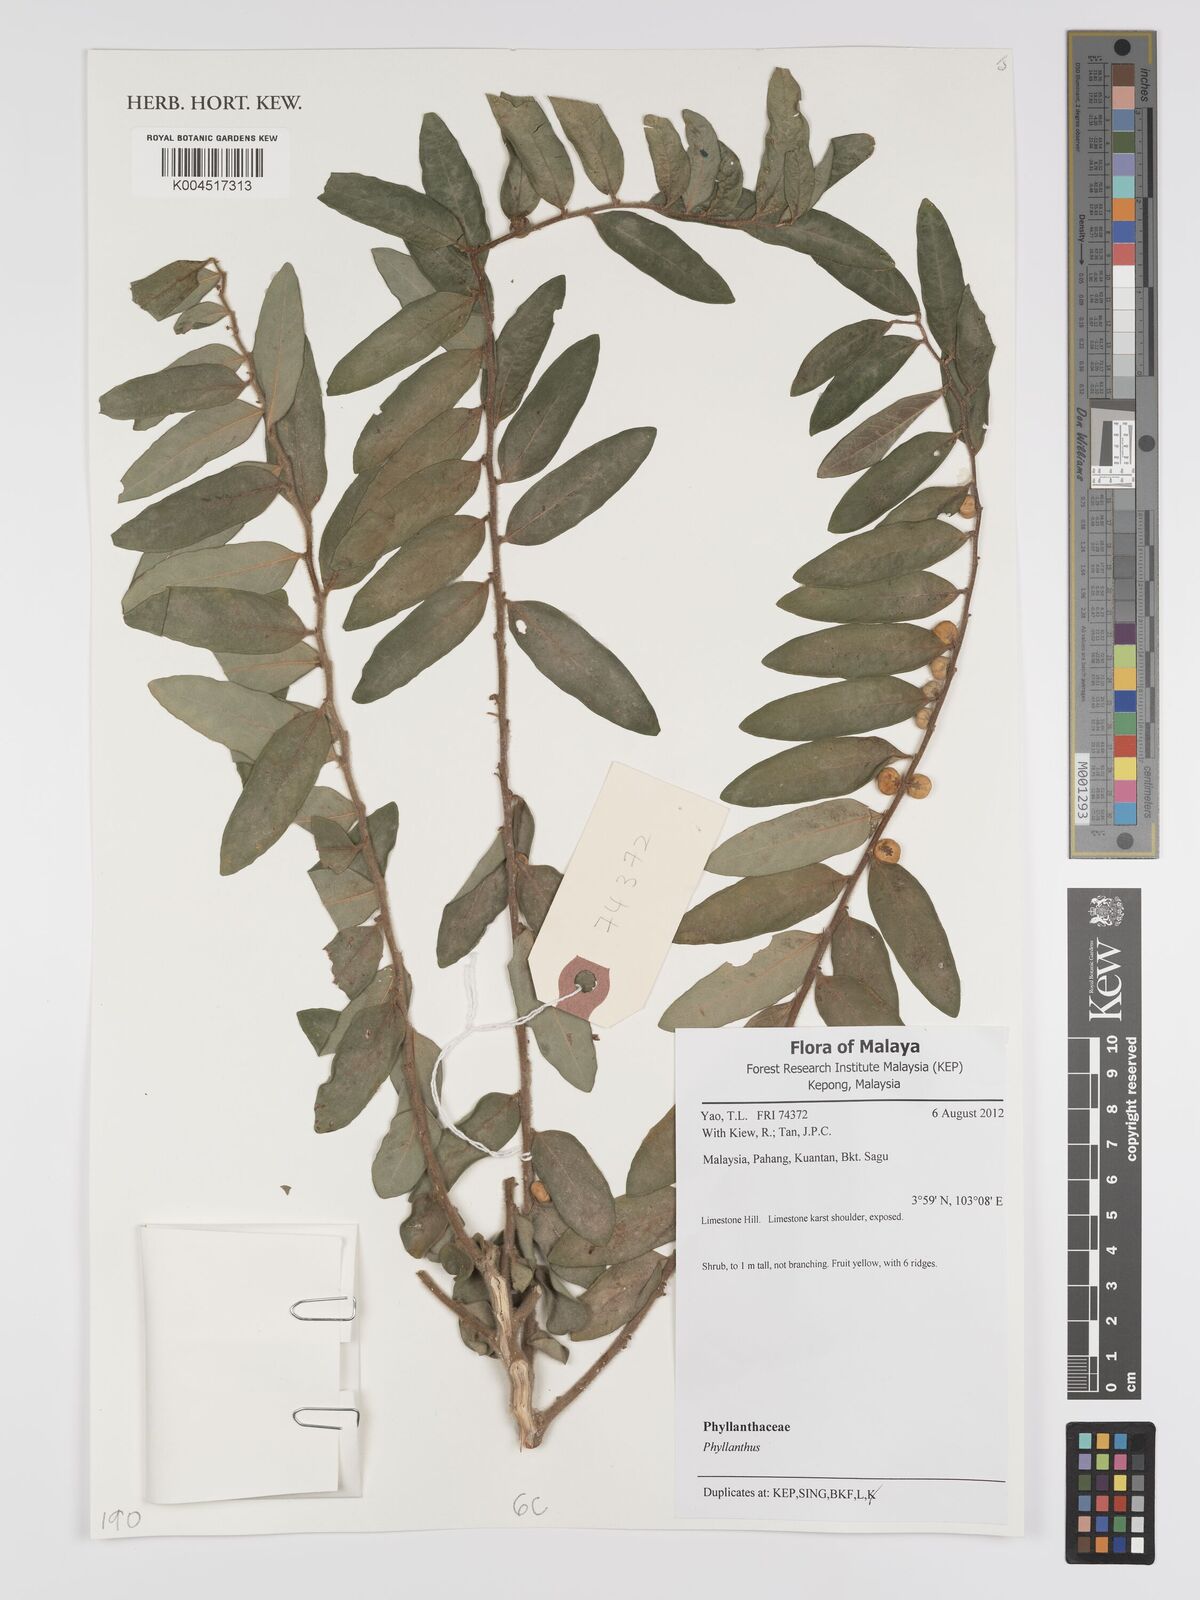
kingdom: Plantae
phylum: Tracheophyta
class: Magnoliopsida
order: Malpighiales
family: Phyllanthaceae
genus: Phyllanthus
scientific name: Phyllanthus
